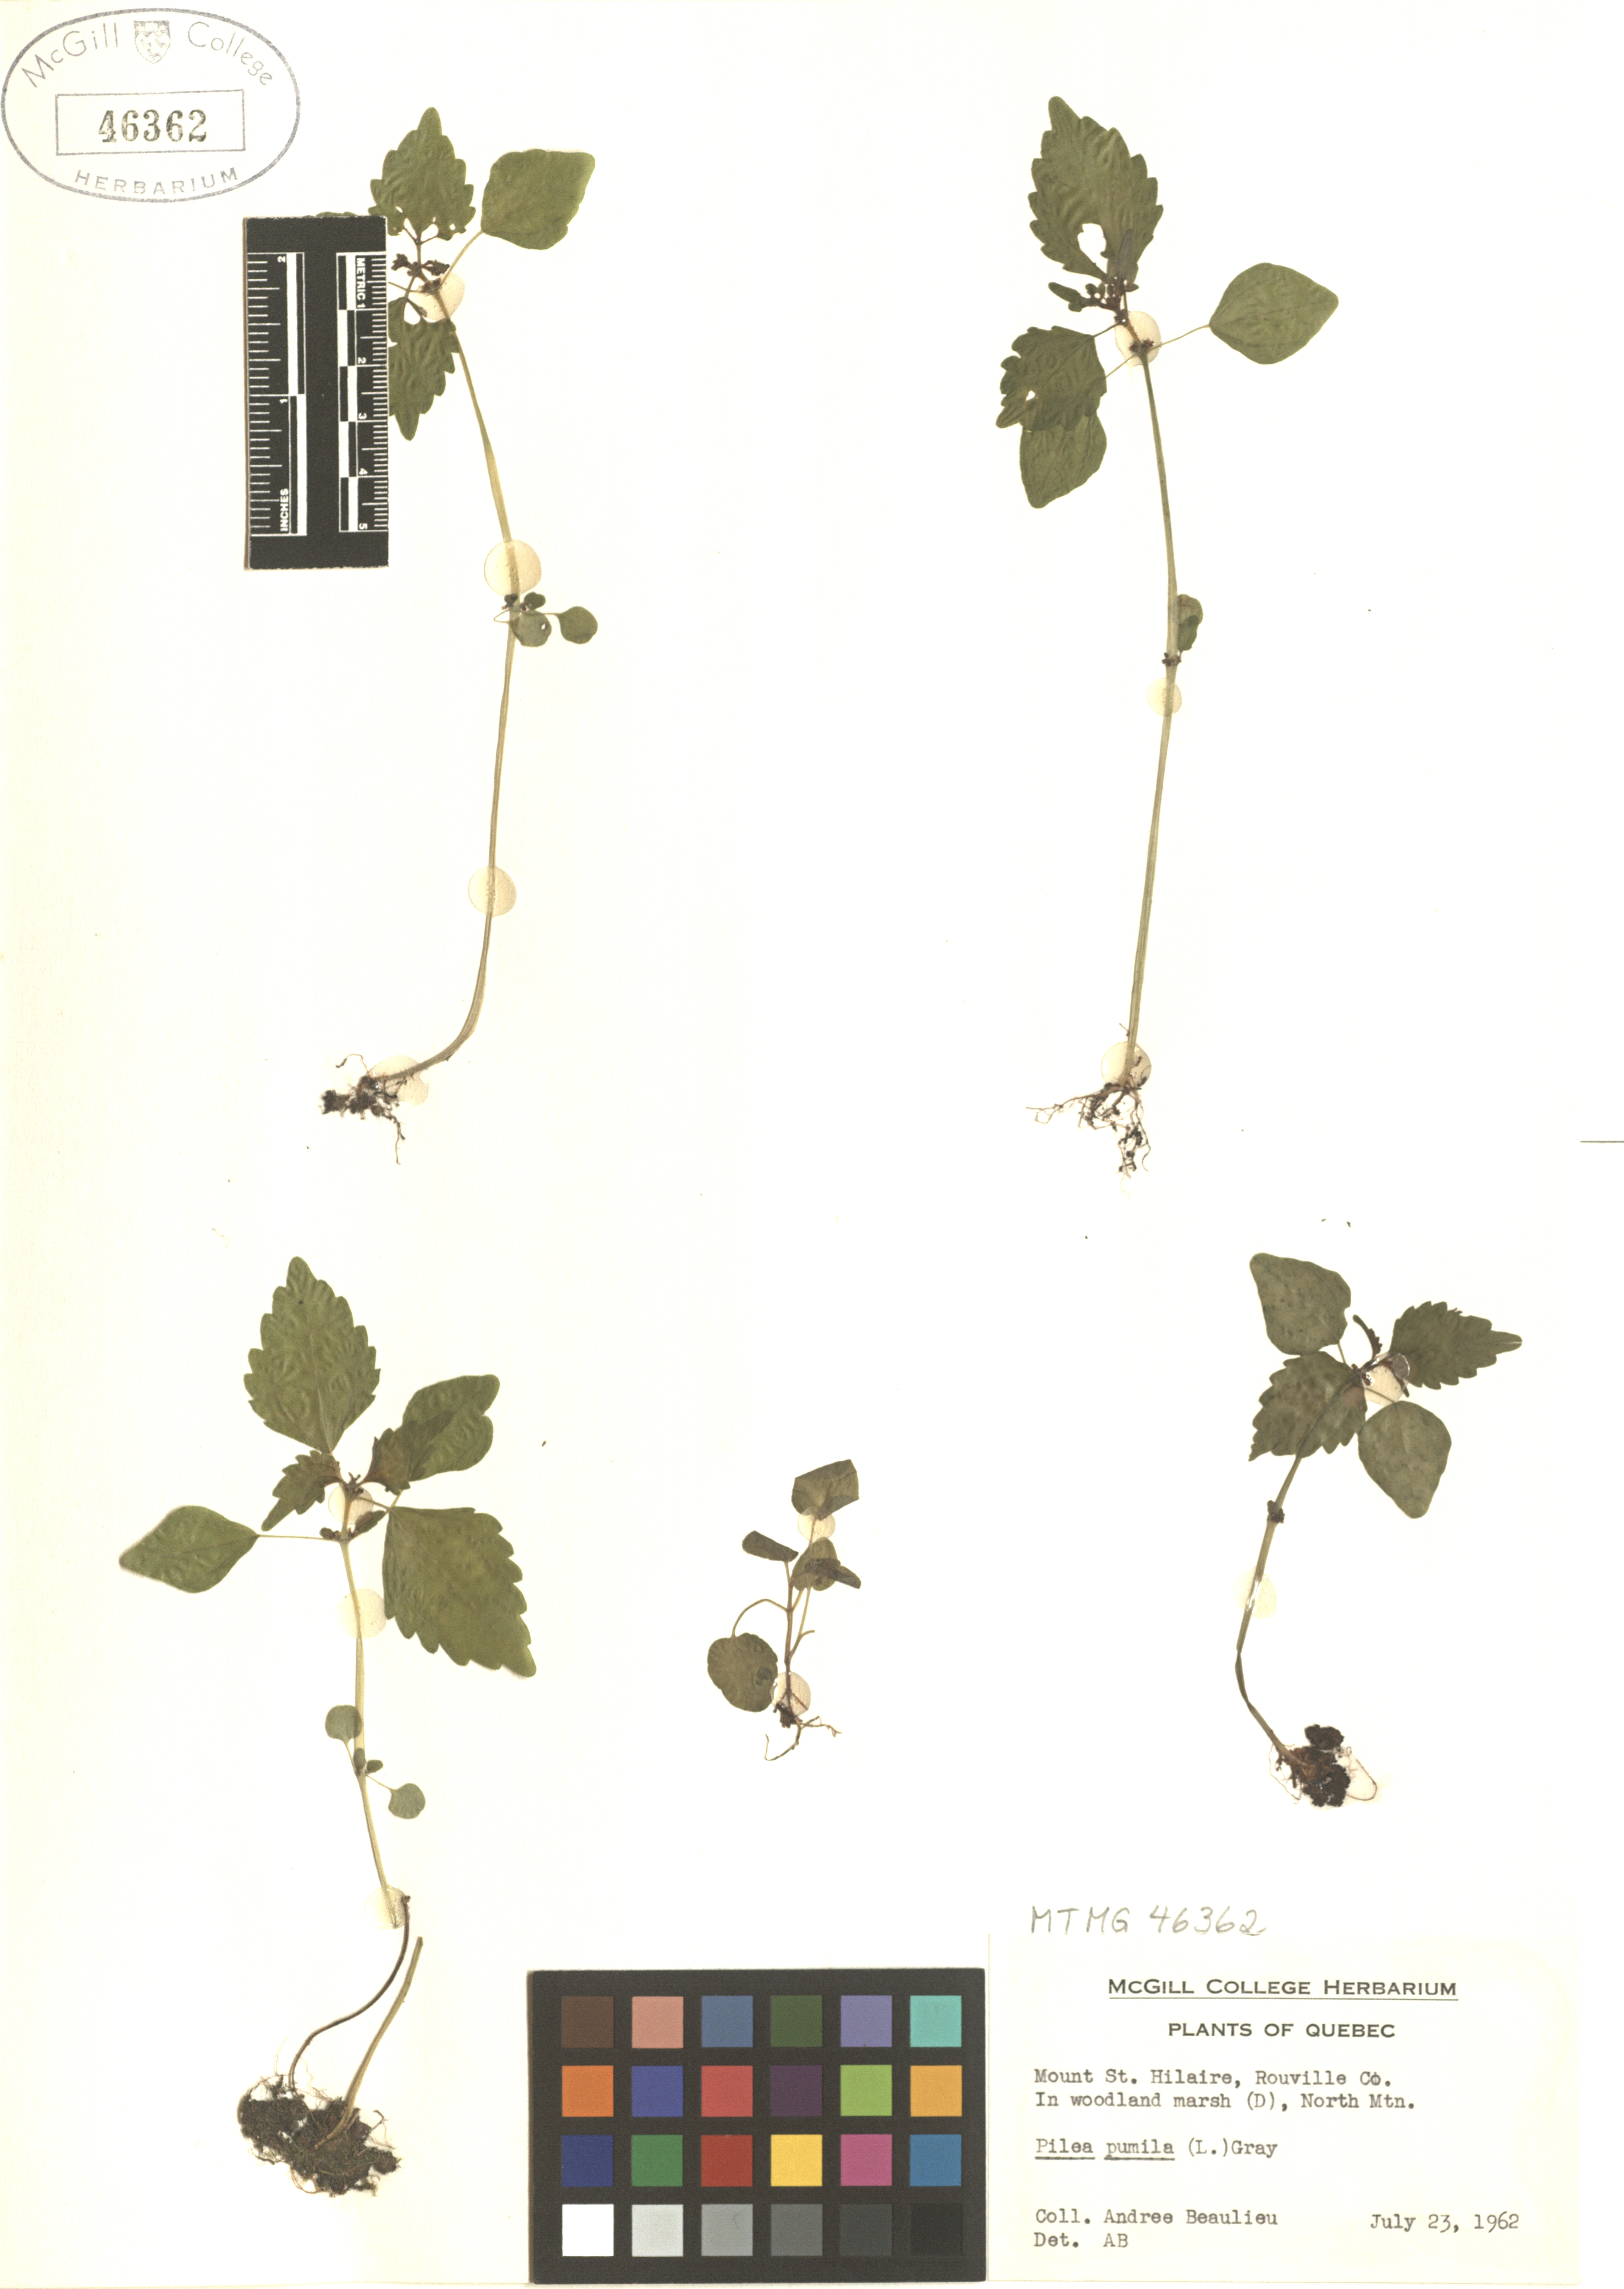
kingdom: Plantae
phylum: Tracheophyta
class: Magnoliopsida
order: Rosales
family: Urticaceae
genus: Pilea
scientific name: Pilea pumila
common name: Clearweed
